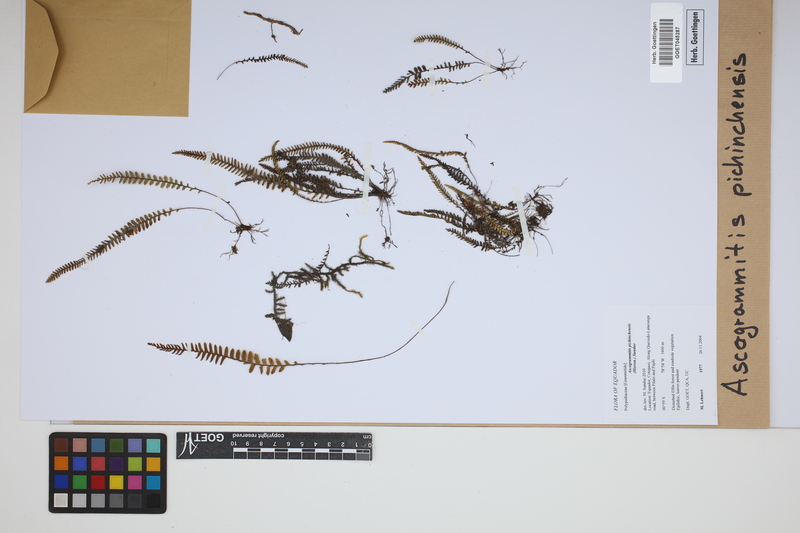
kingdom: Plantae
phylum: Tracheophyta
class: Polypodiopsida
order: Polypodiales
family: Polypodiaceae
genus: Ascogrammitis
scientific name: Ascogrammitis pichinchensis
